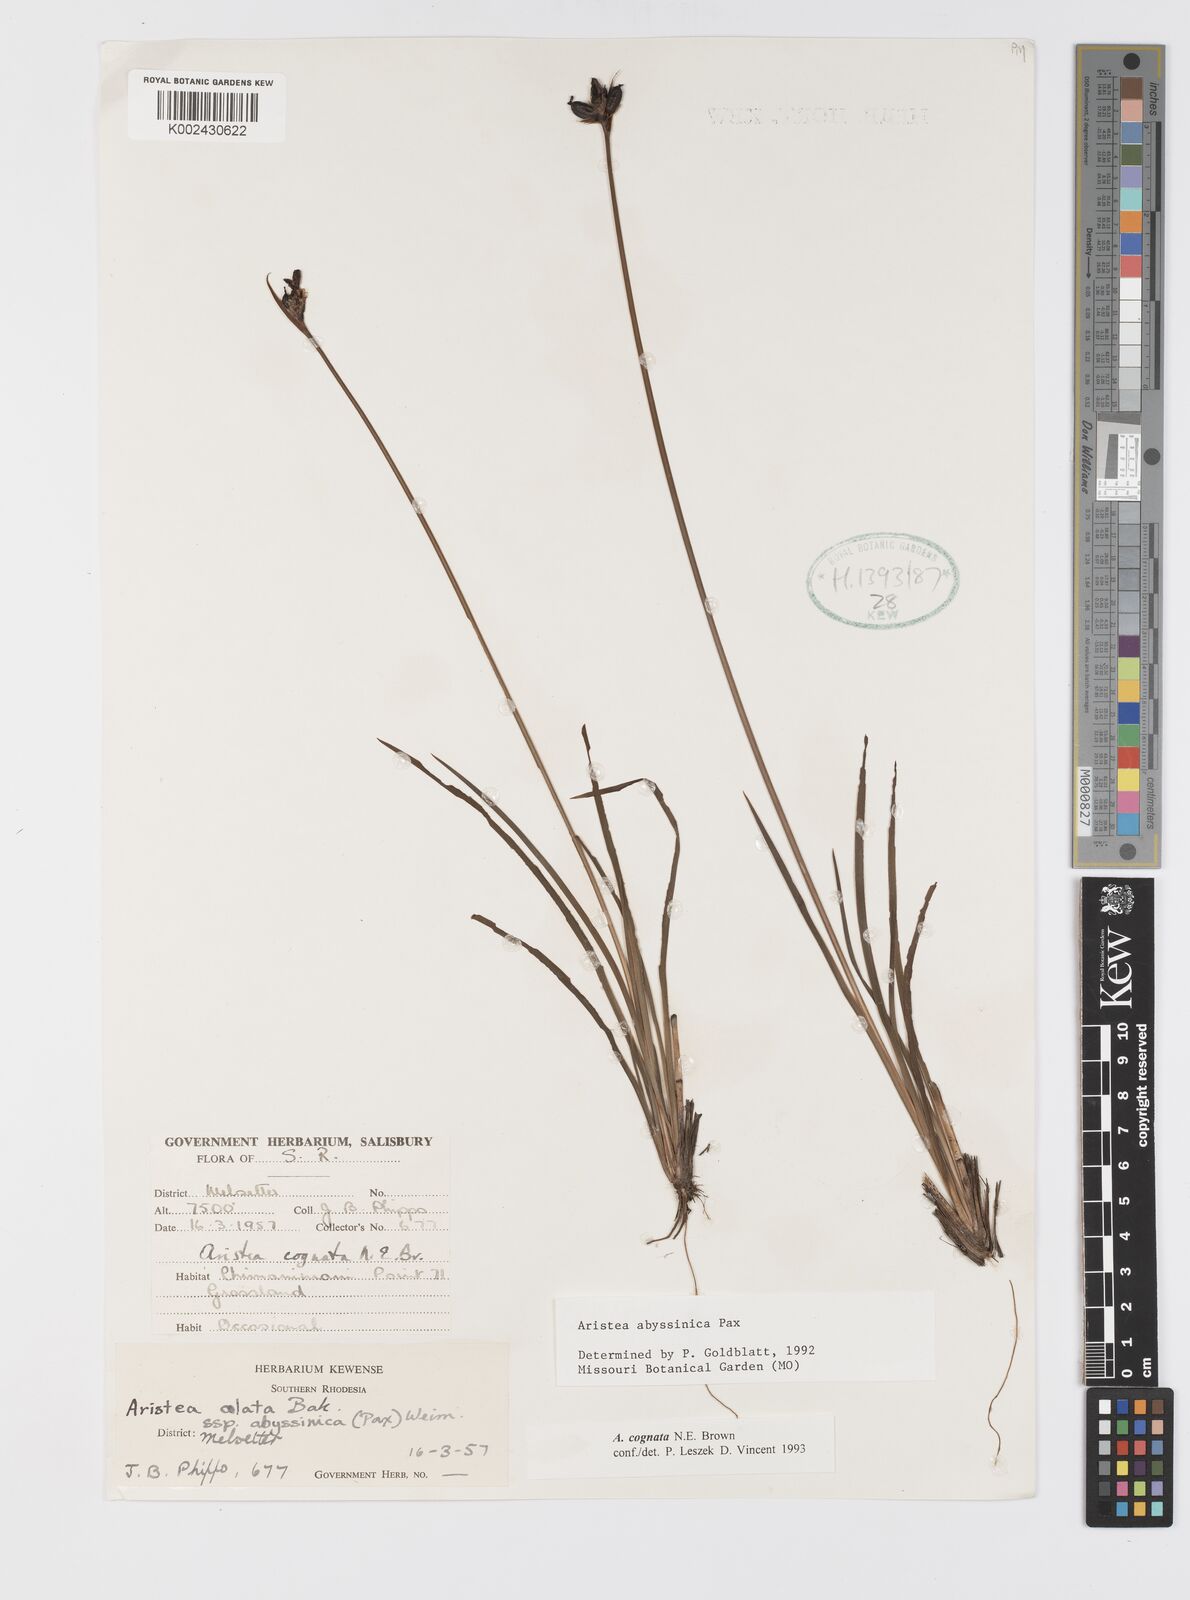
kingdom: Plantae
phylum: Tracheophyta
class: Liliopsida
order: Asparagales
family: Iridaceae
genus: Aristea
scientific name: Aristea abyssinica
